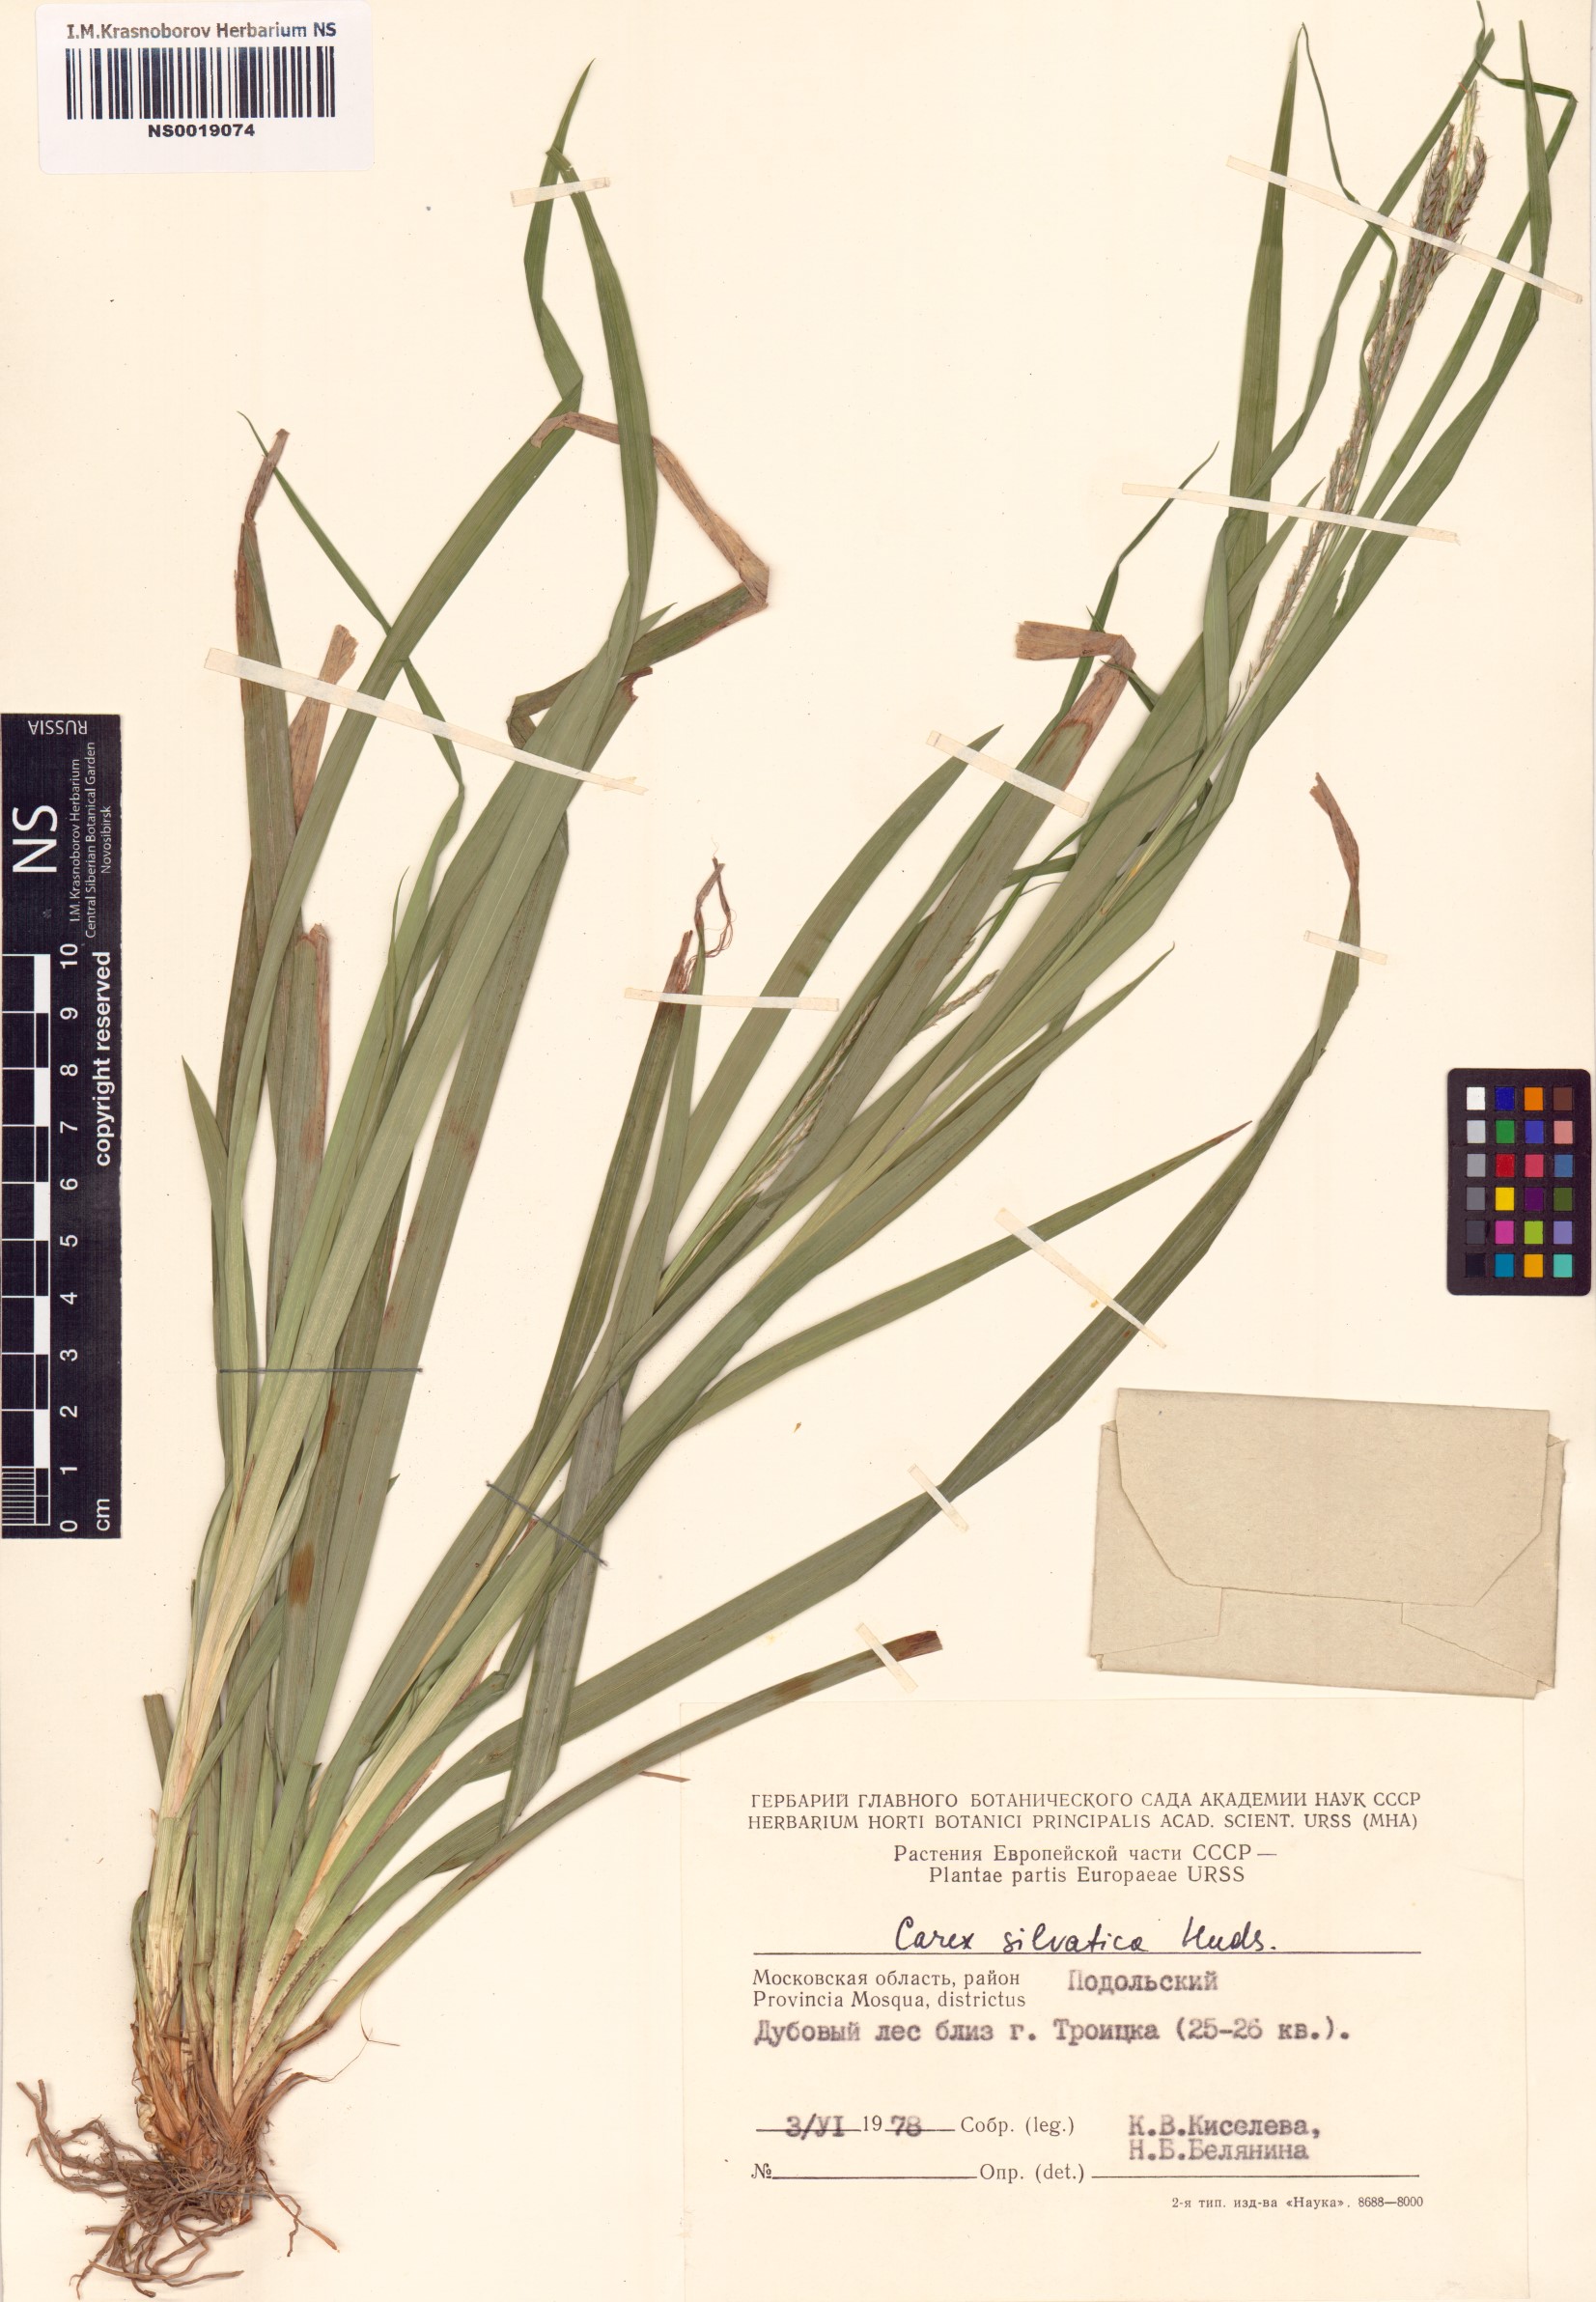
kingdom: Plantae
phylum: Tracheophyta
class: Liliopsida
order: Poales
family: Cyperaceae
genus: Carex
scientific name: Carex sylvatica
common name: Wood-sedge
